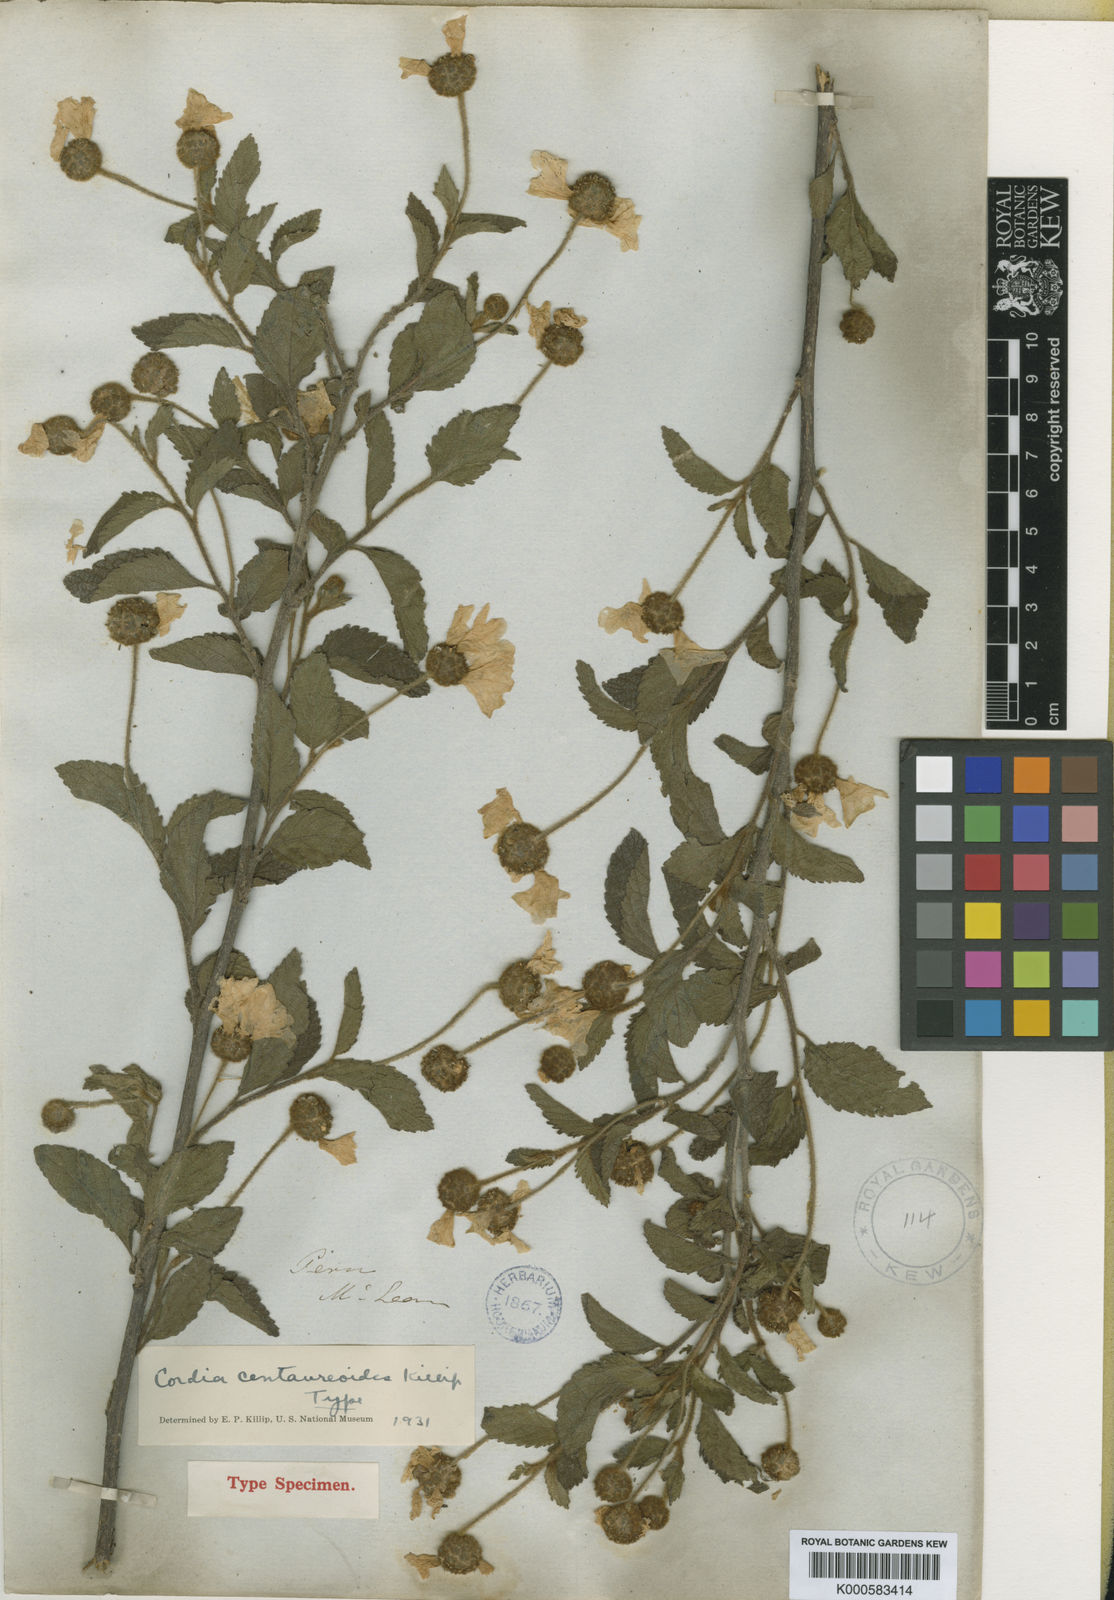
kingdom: Plantae
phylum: Tracheophyta
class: Magnoliopsida
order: Boraginales
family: Cordiaceae
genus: Cordia
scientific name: Cordia
